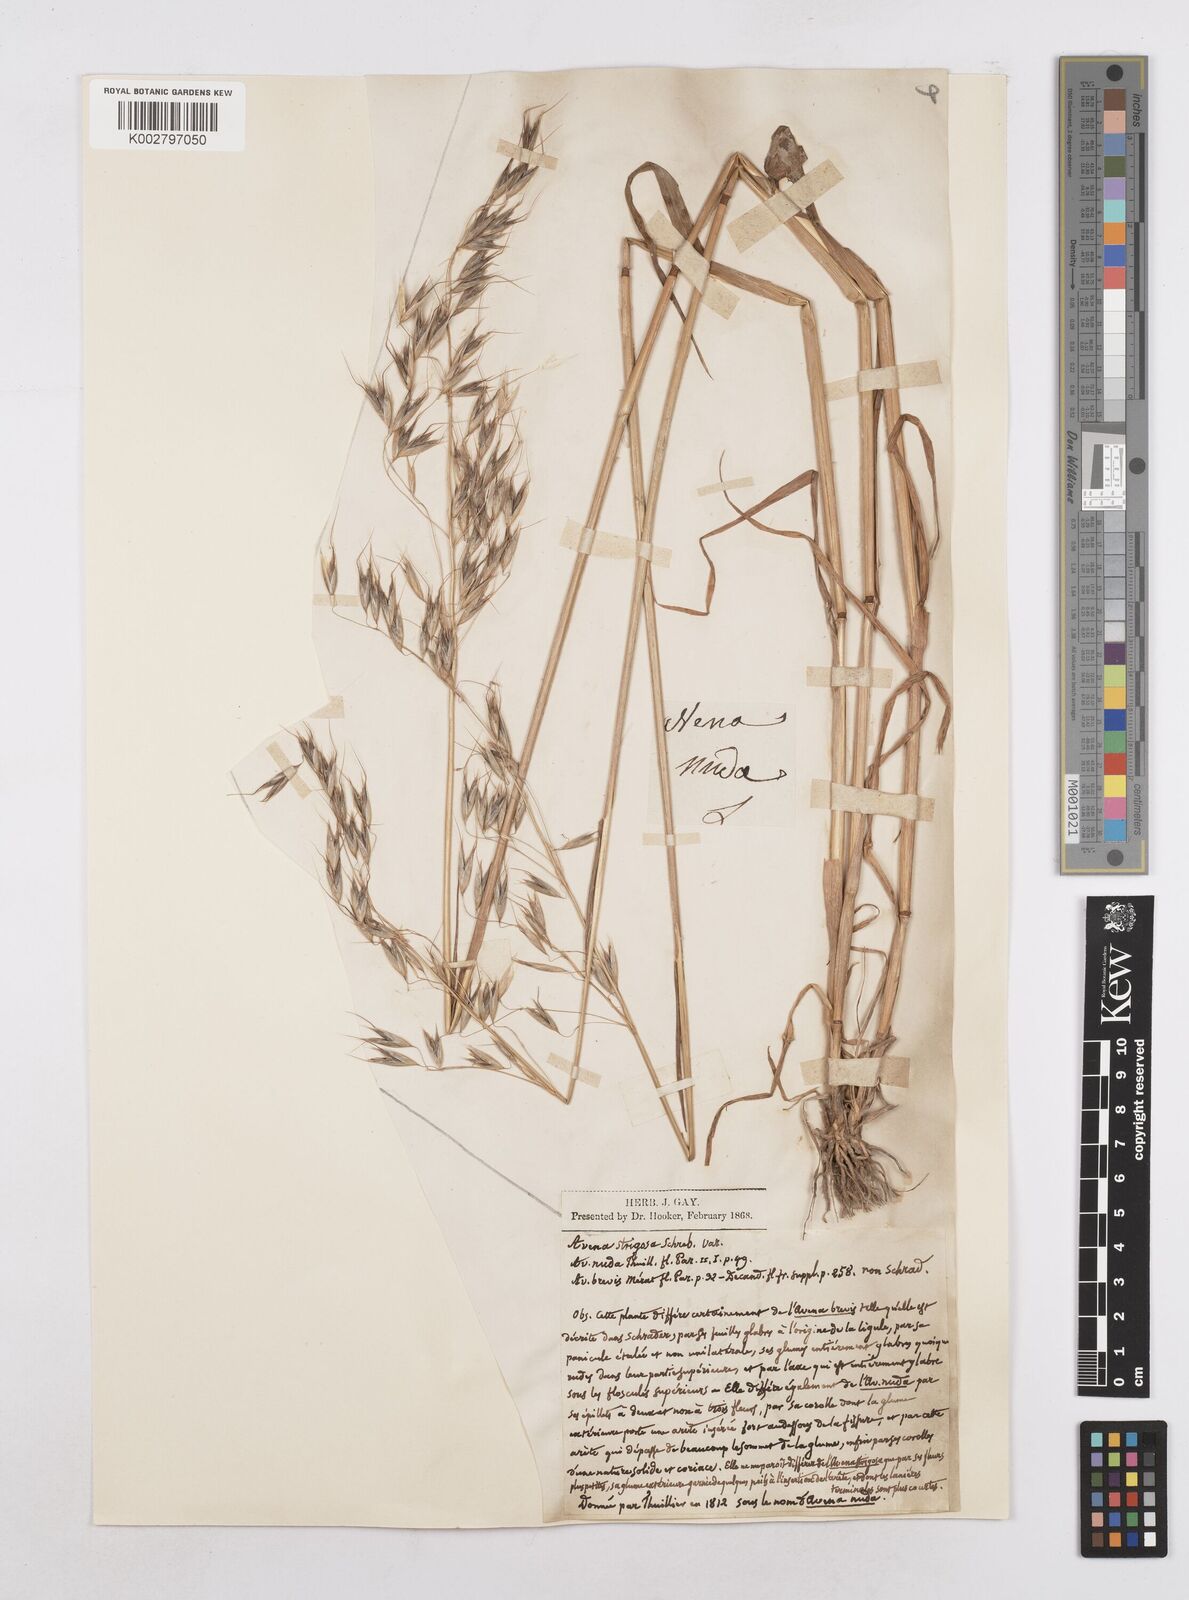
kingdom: Plantae
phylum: Tracheophyta
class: Liliopsida
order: Poales
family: Poaceae
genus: Avena
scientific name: Avena strigosa
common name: Bristle oat
